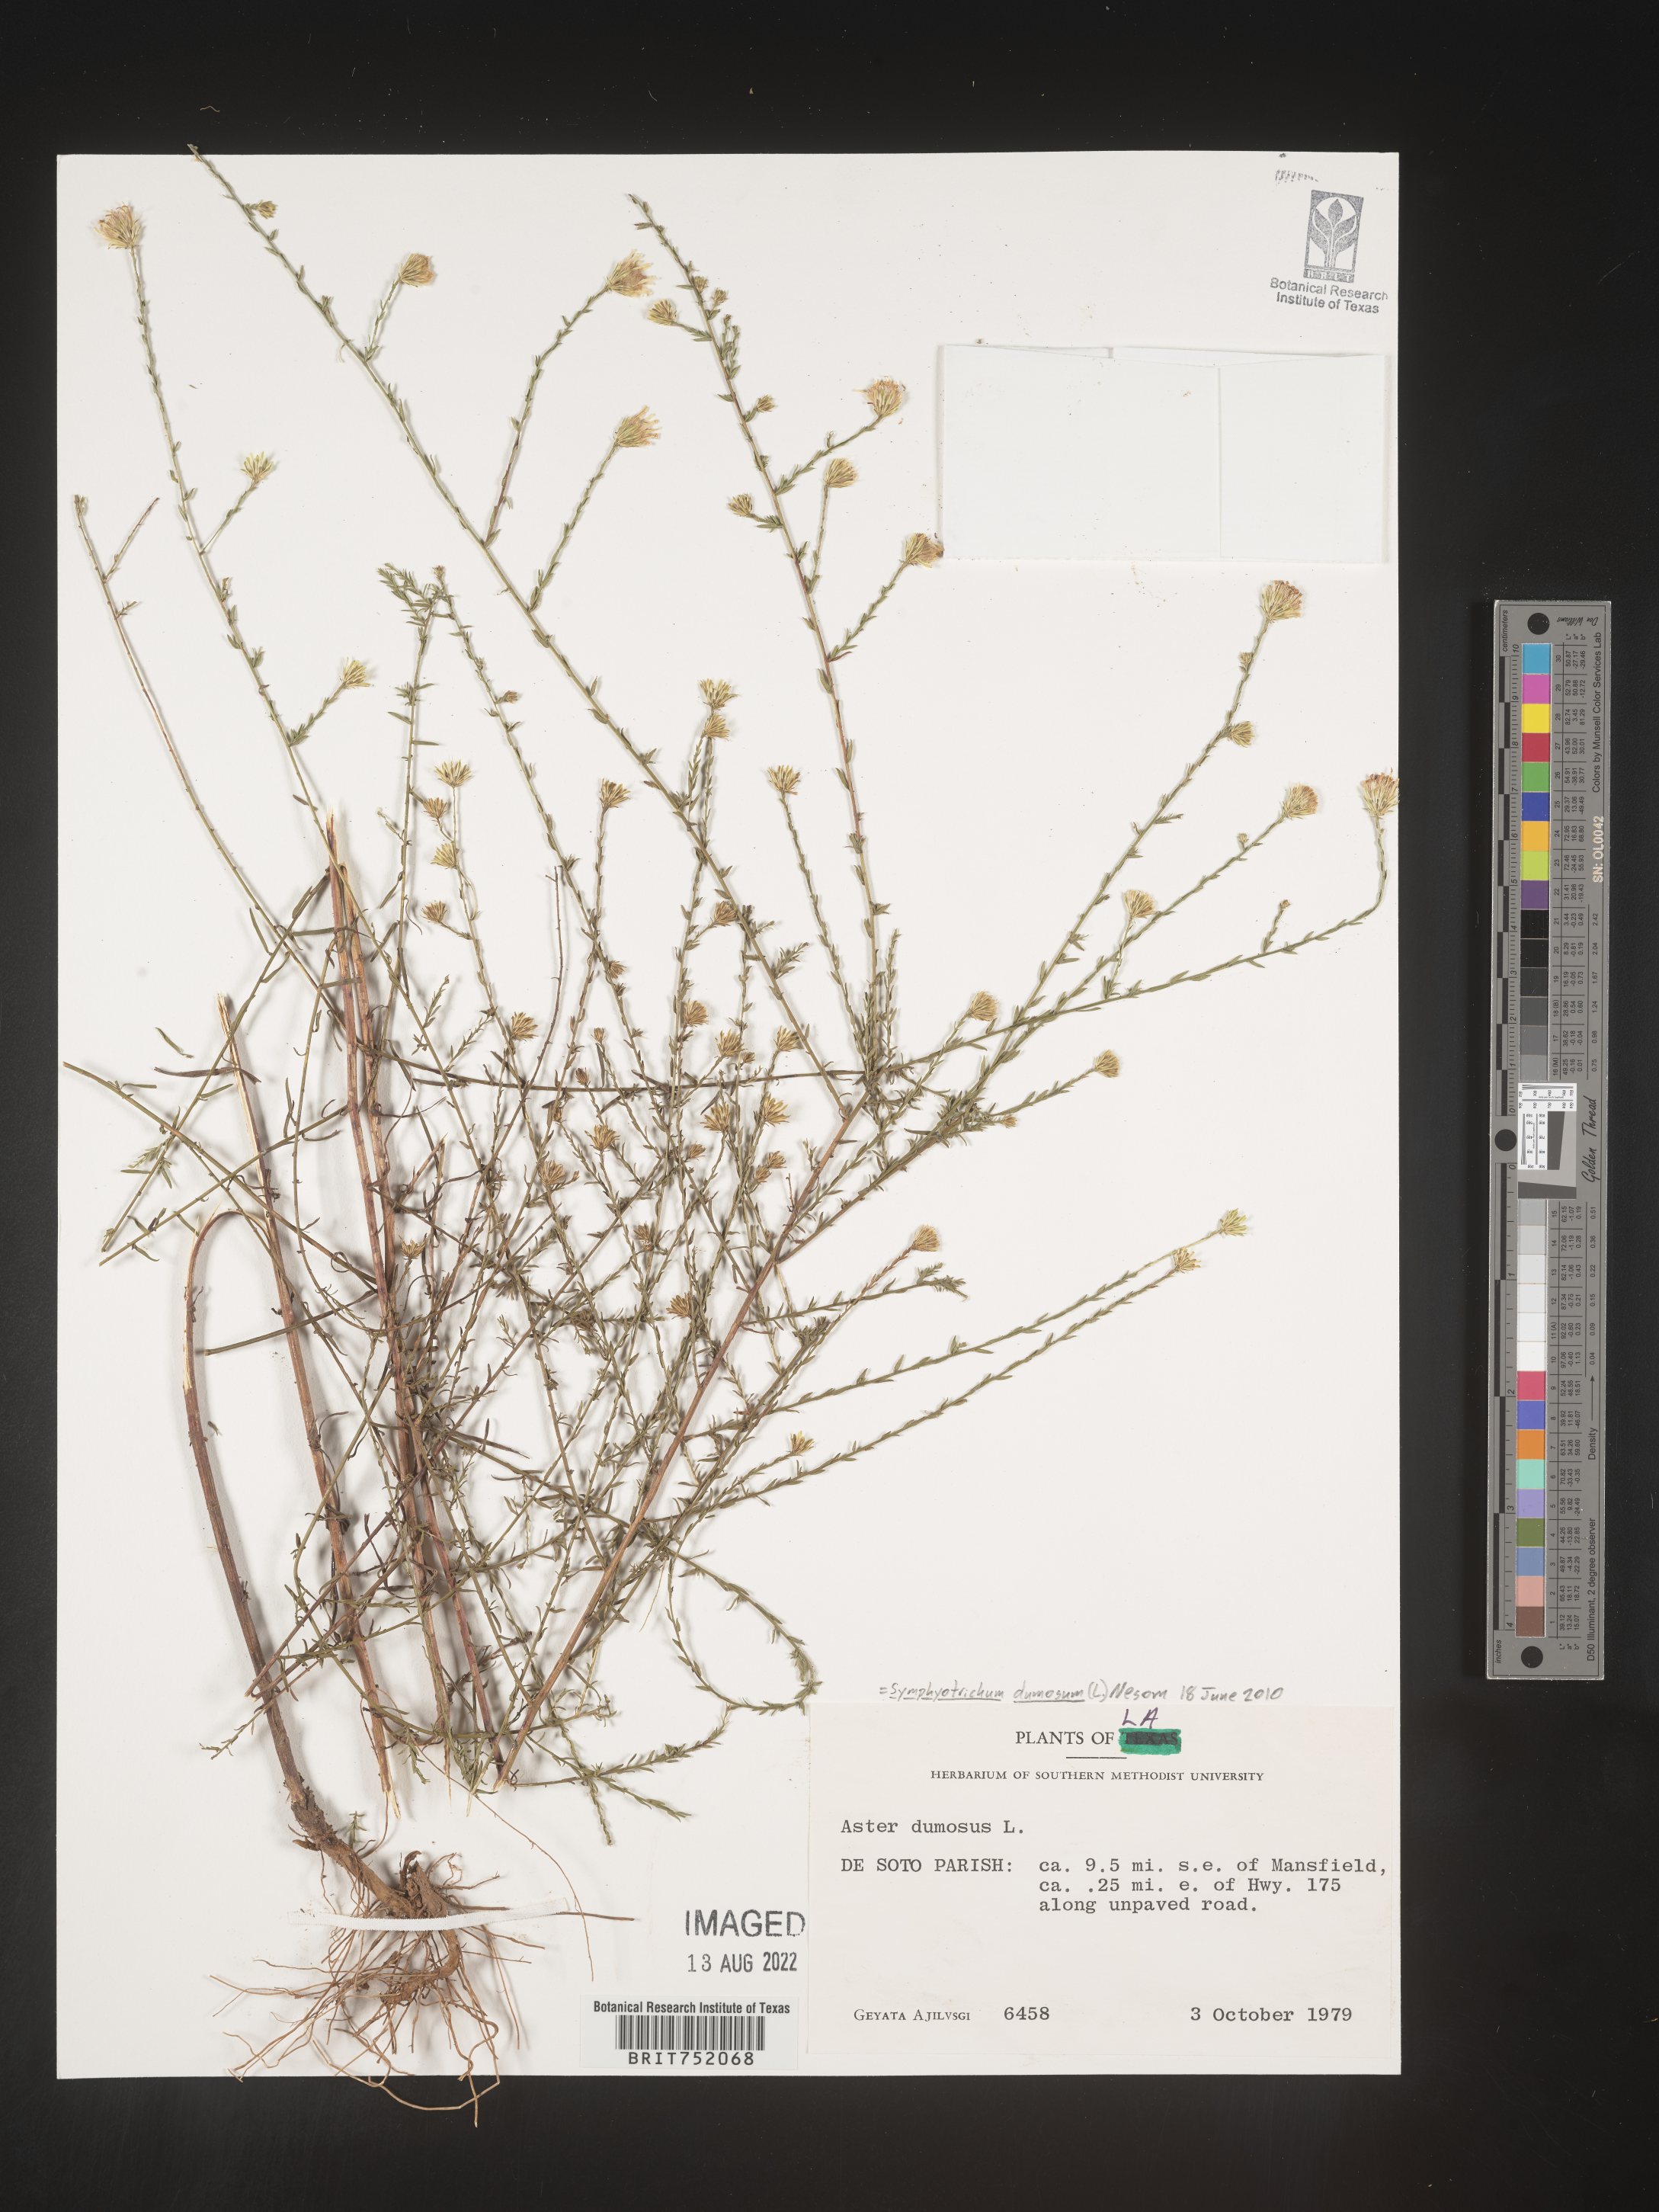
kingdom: Plantae
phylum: Tracheophyta
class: Magnoliopsida
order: Asterales
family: Asteraceae
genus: Symphyotrichum
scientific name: Symphyotrichum dumosum
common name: Bushy aster
